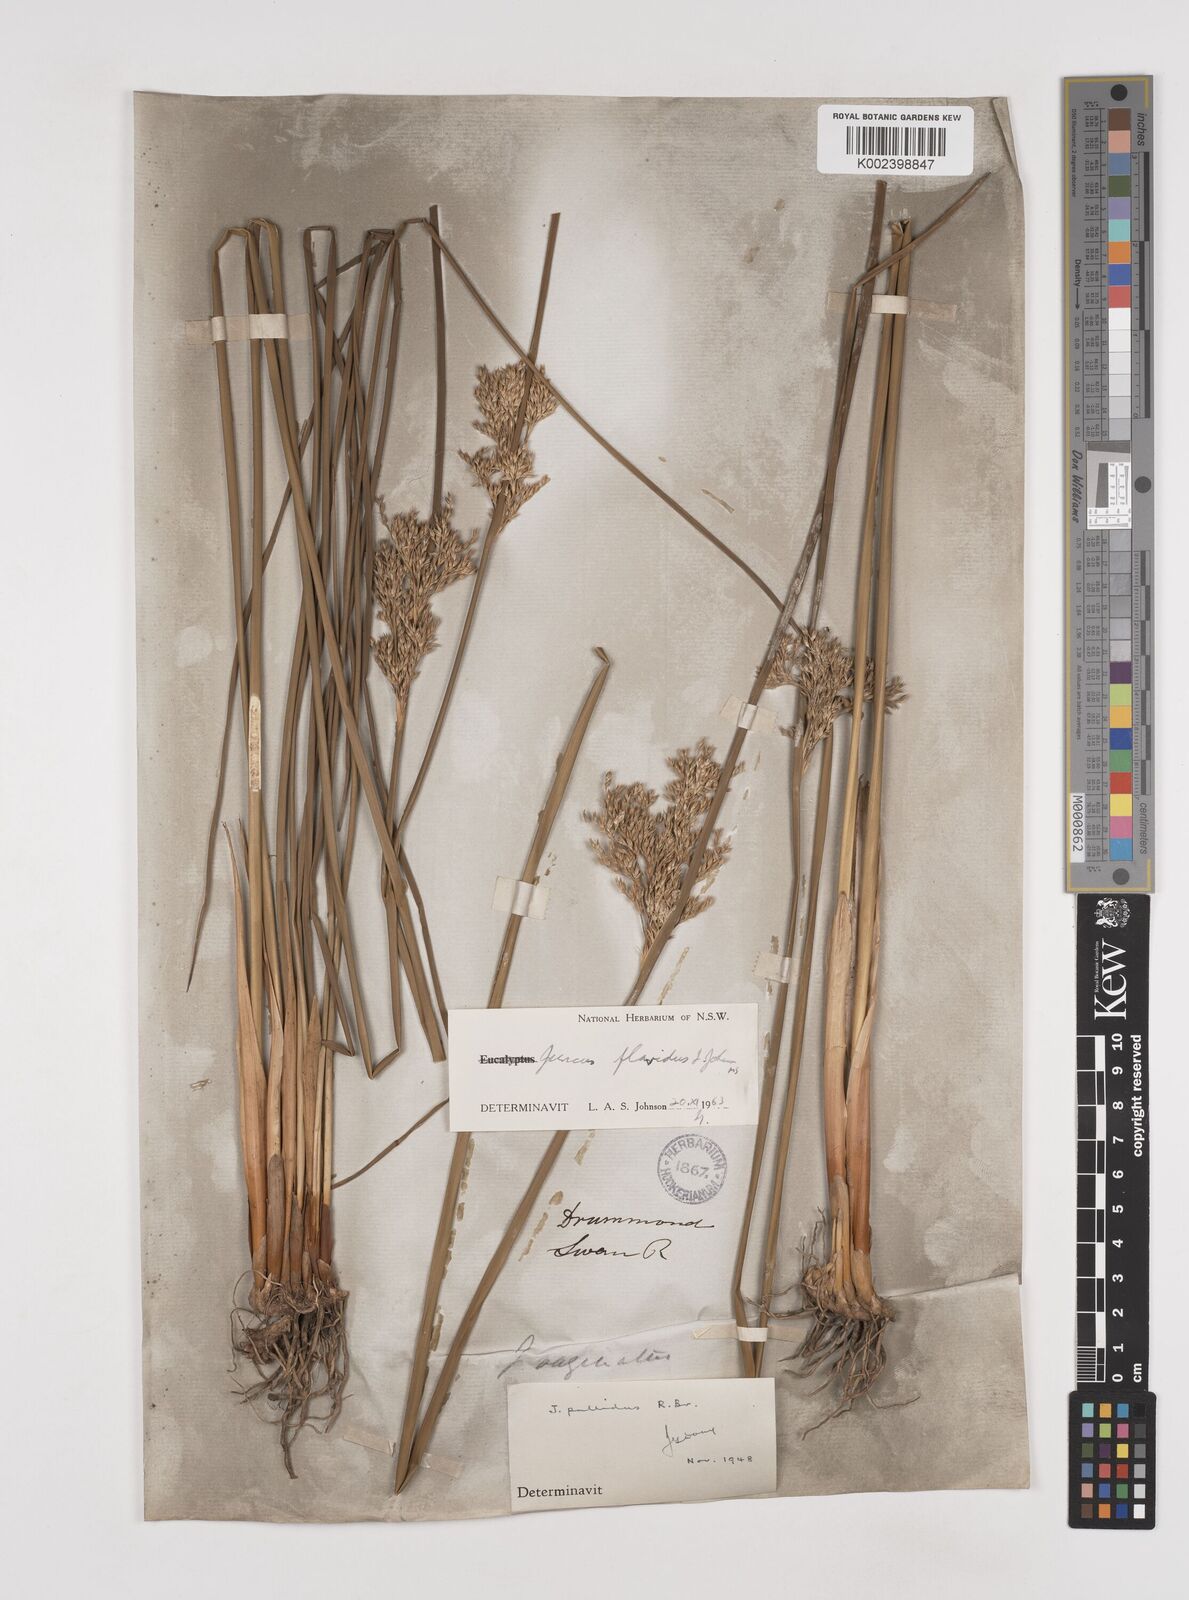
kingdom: Plantae
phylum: Tracheophyta
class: Liliopsida
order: Poales
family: Juncaceae
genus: Juncus
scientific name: Juncus flavidus
